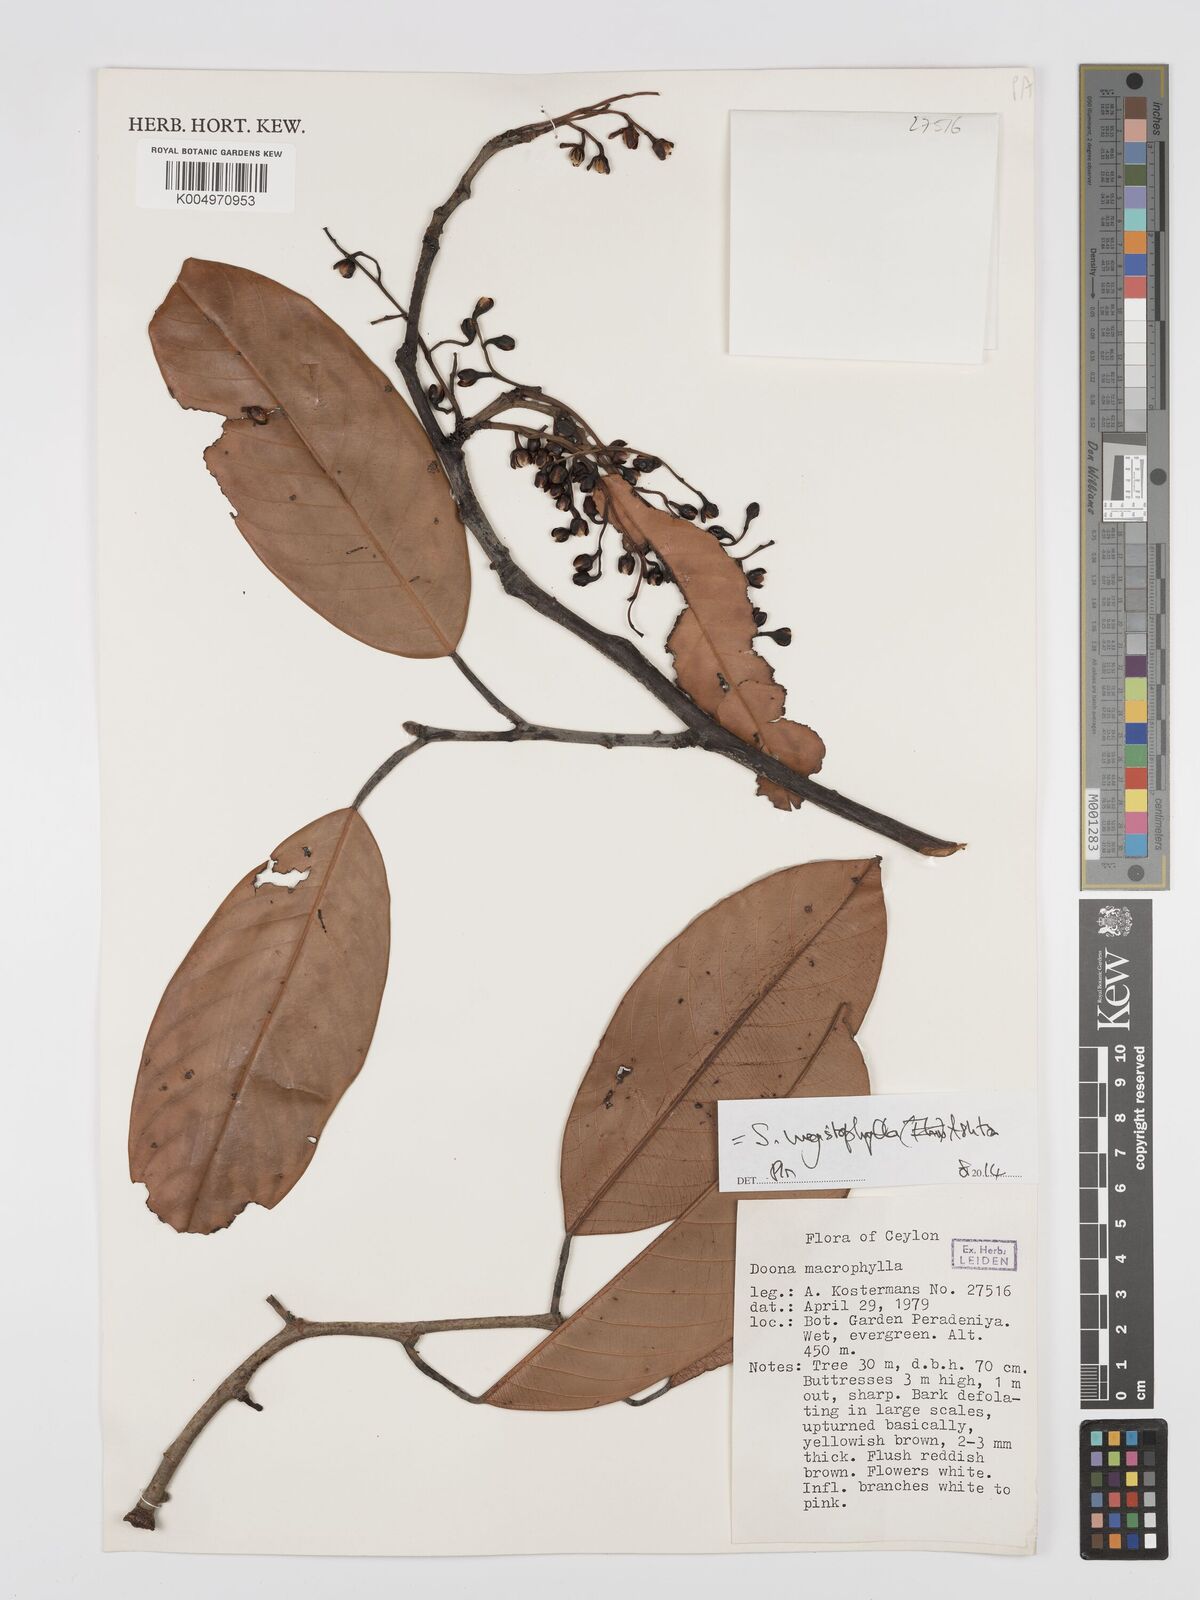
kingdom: Plantae
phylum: Tracheophyta
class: Magnoliopsida
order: Malvales
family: Dipterocarpaceae
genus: Doona
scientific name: Doona macrophylla
